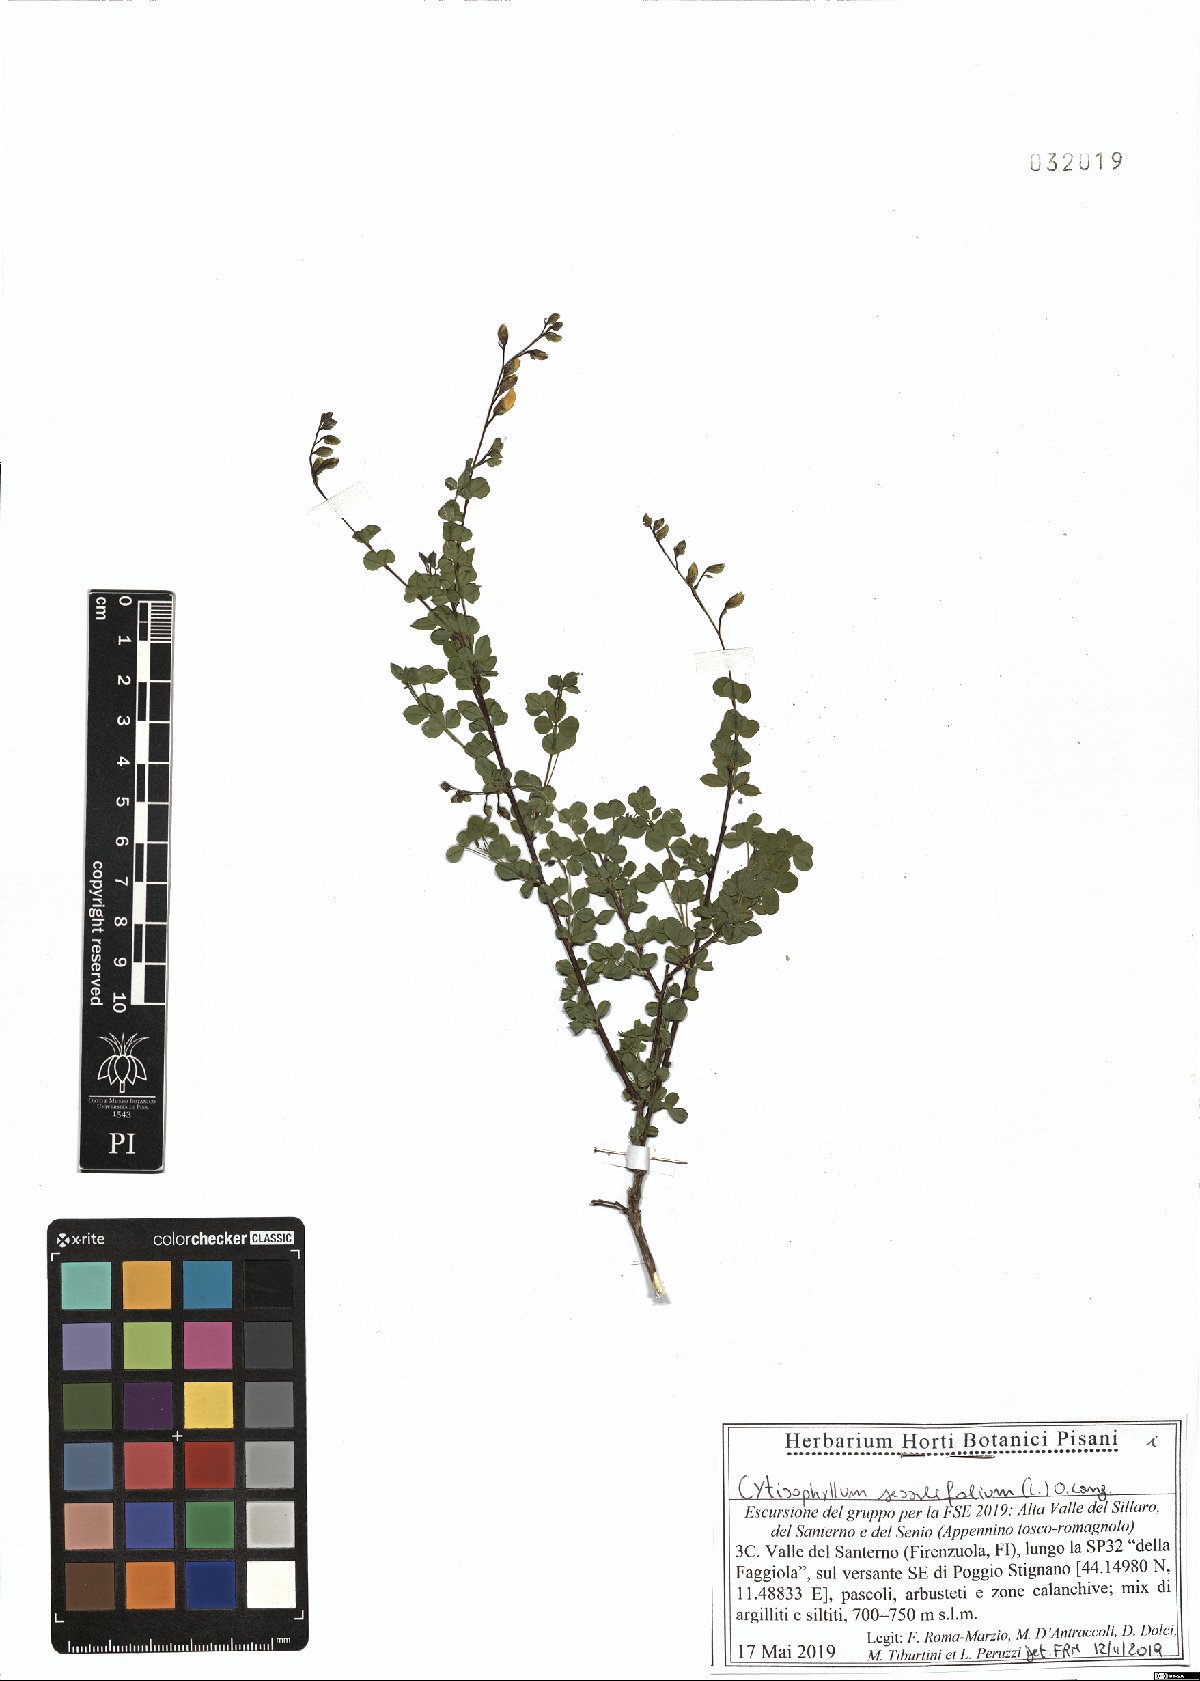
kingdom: Plantae
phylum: Tracheophyta
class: Magnoliopsida
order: Fabales
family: Fabaceae
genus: Cytisophyllum
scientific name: Cytisophyllum sessilifolium
